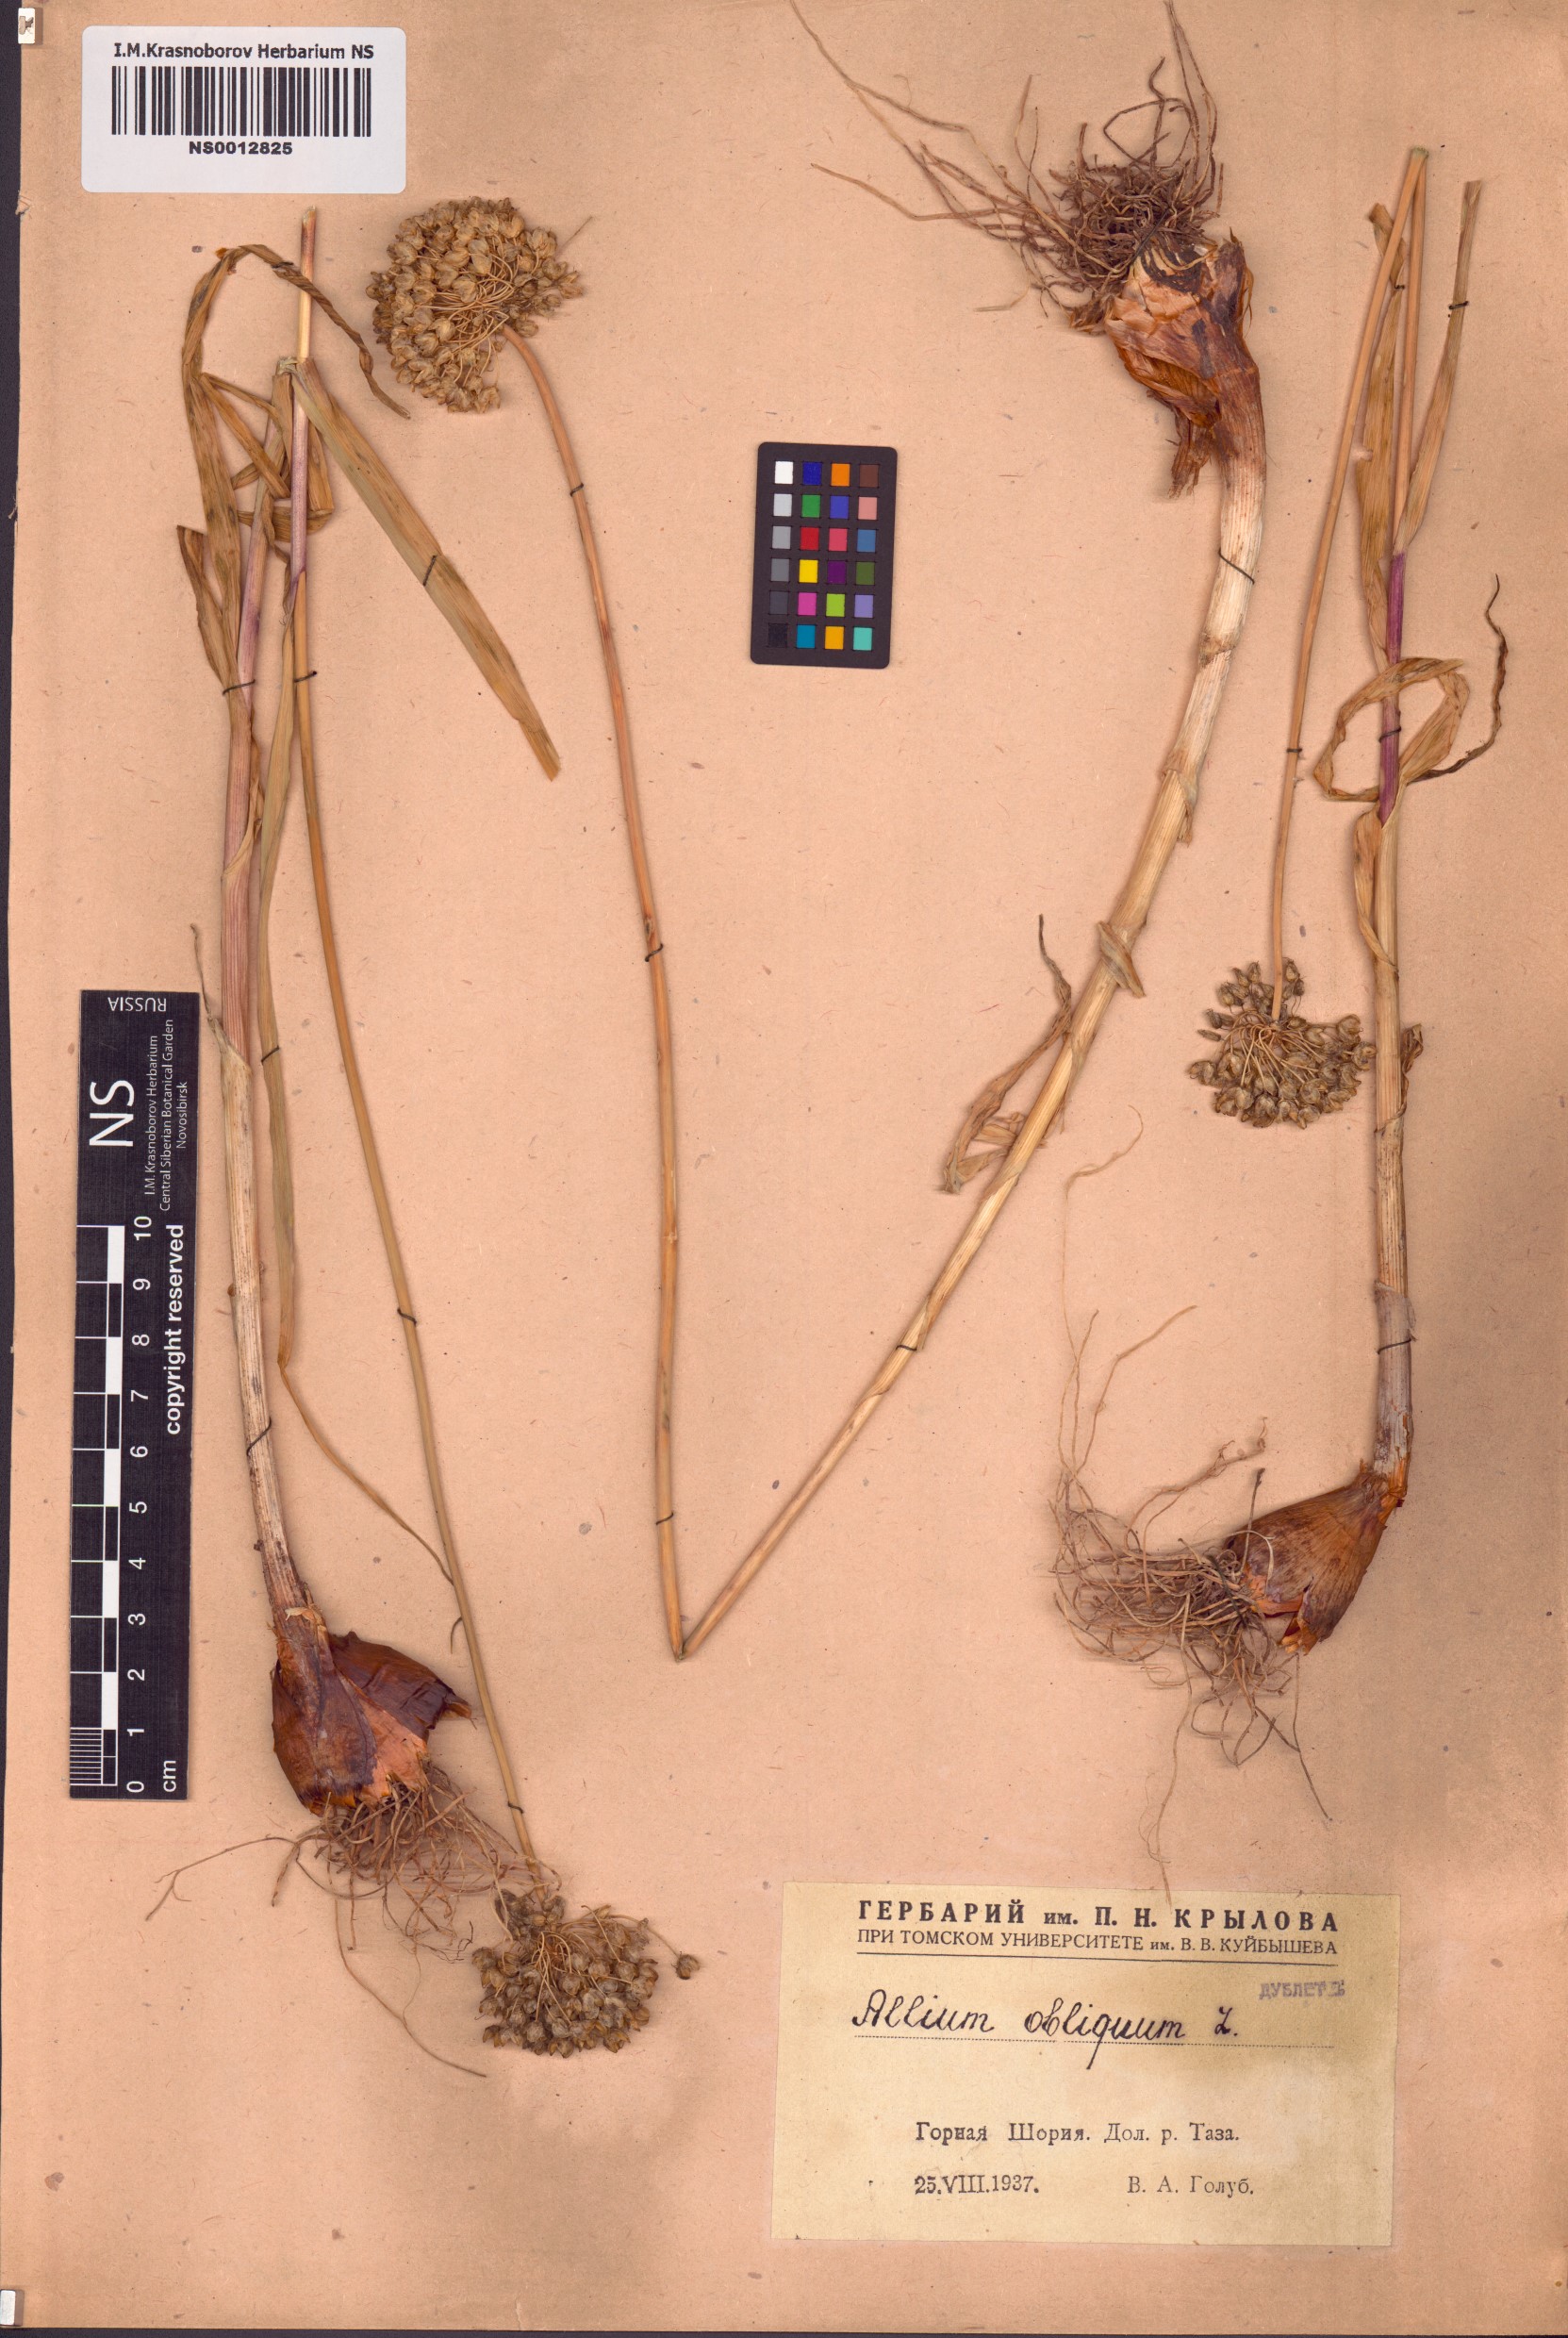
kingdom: Plantae
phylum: Tracheophyta
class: Liliopsida
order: Asparagales
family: Amaryllidaceae
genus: Allium
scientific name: Allium obliquum
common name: Oblique onion
